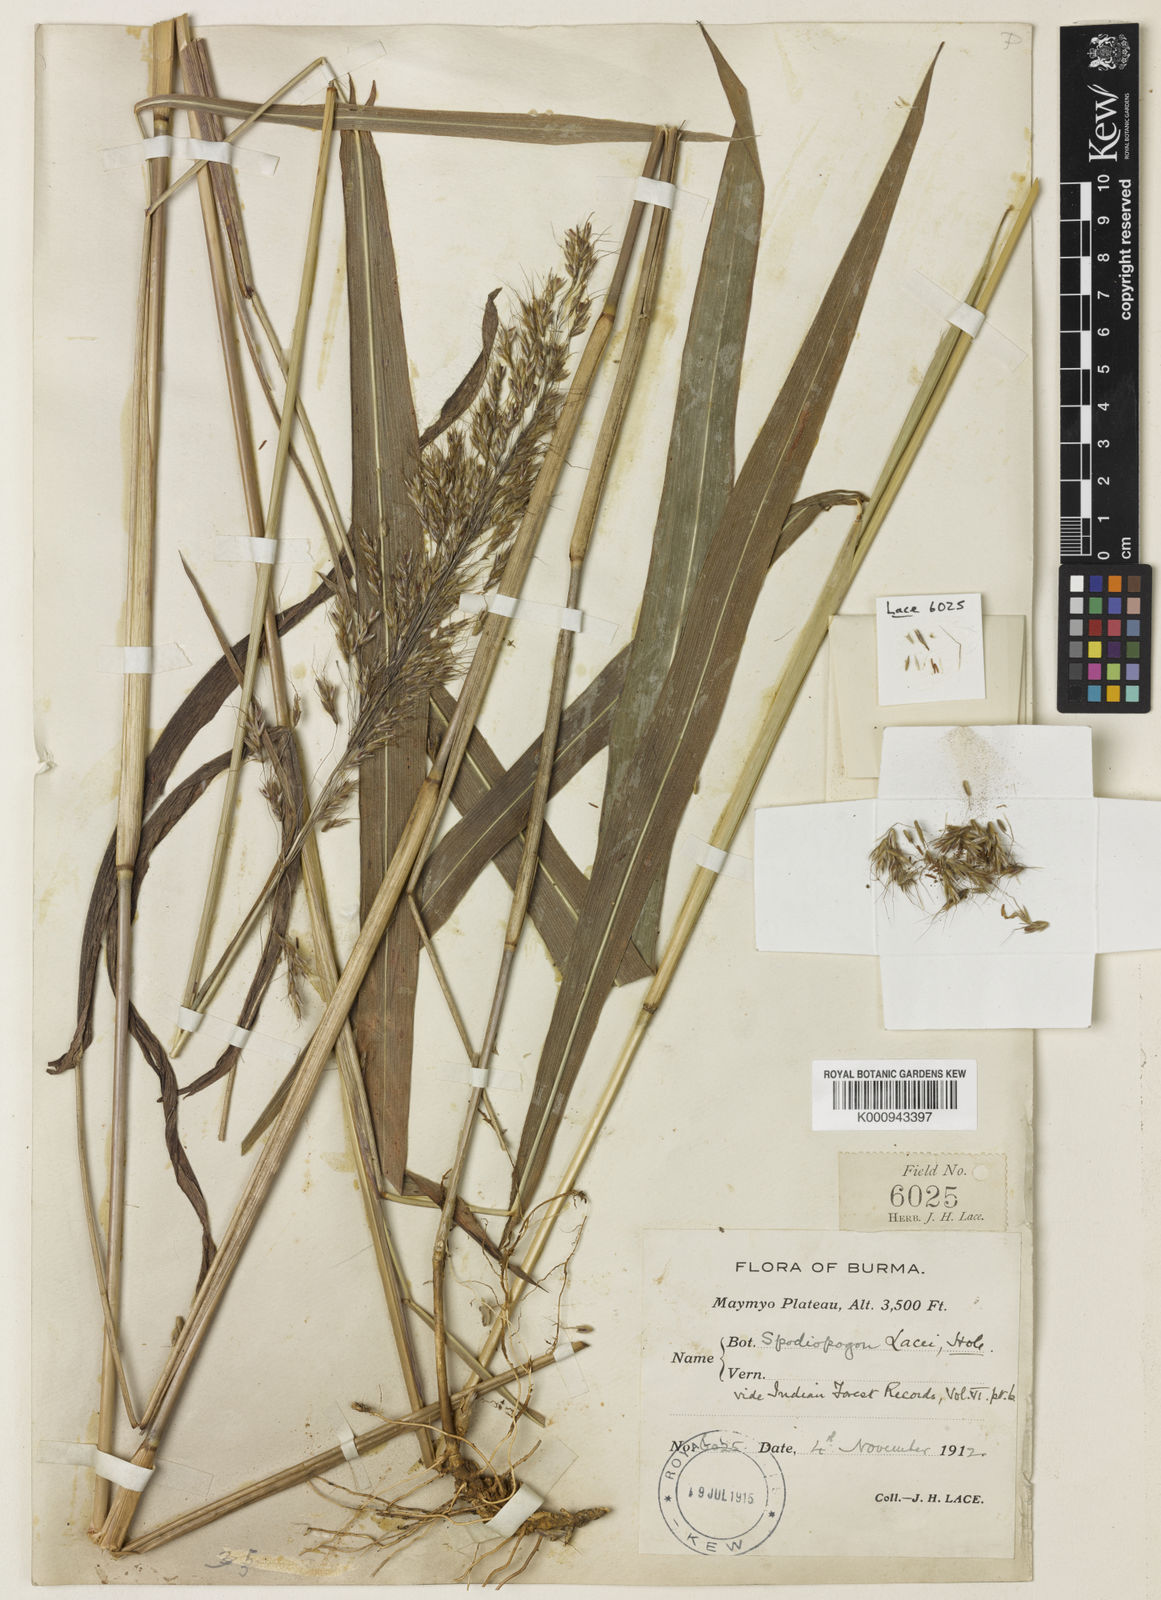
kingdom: Plantae
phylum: Tracheophyta
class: Liliopsida
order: Poales
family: Poaceae
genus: Spodiopogon
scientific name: Spodiopogon jainii
